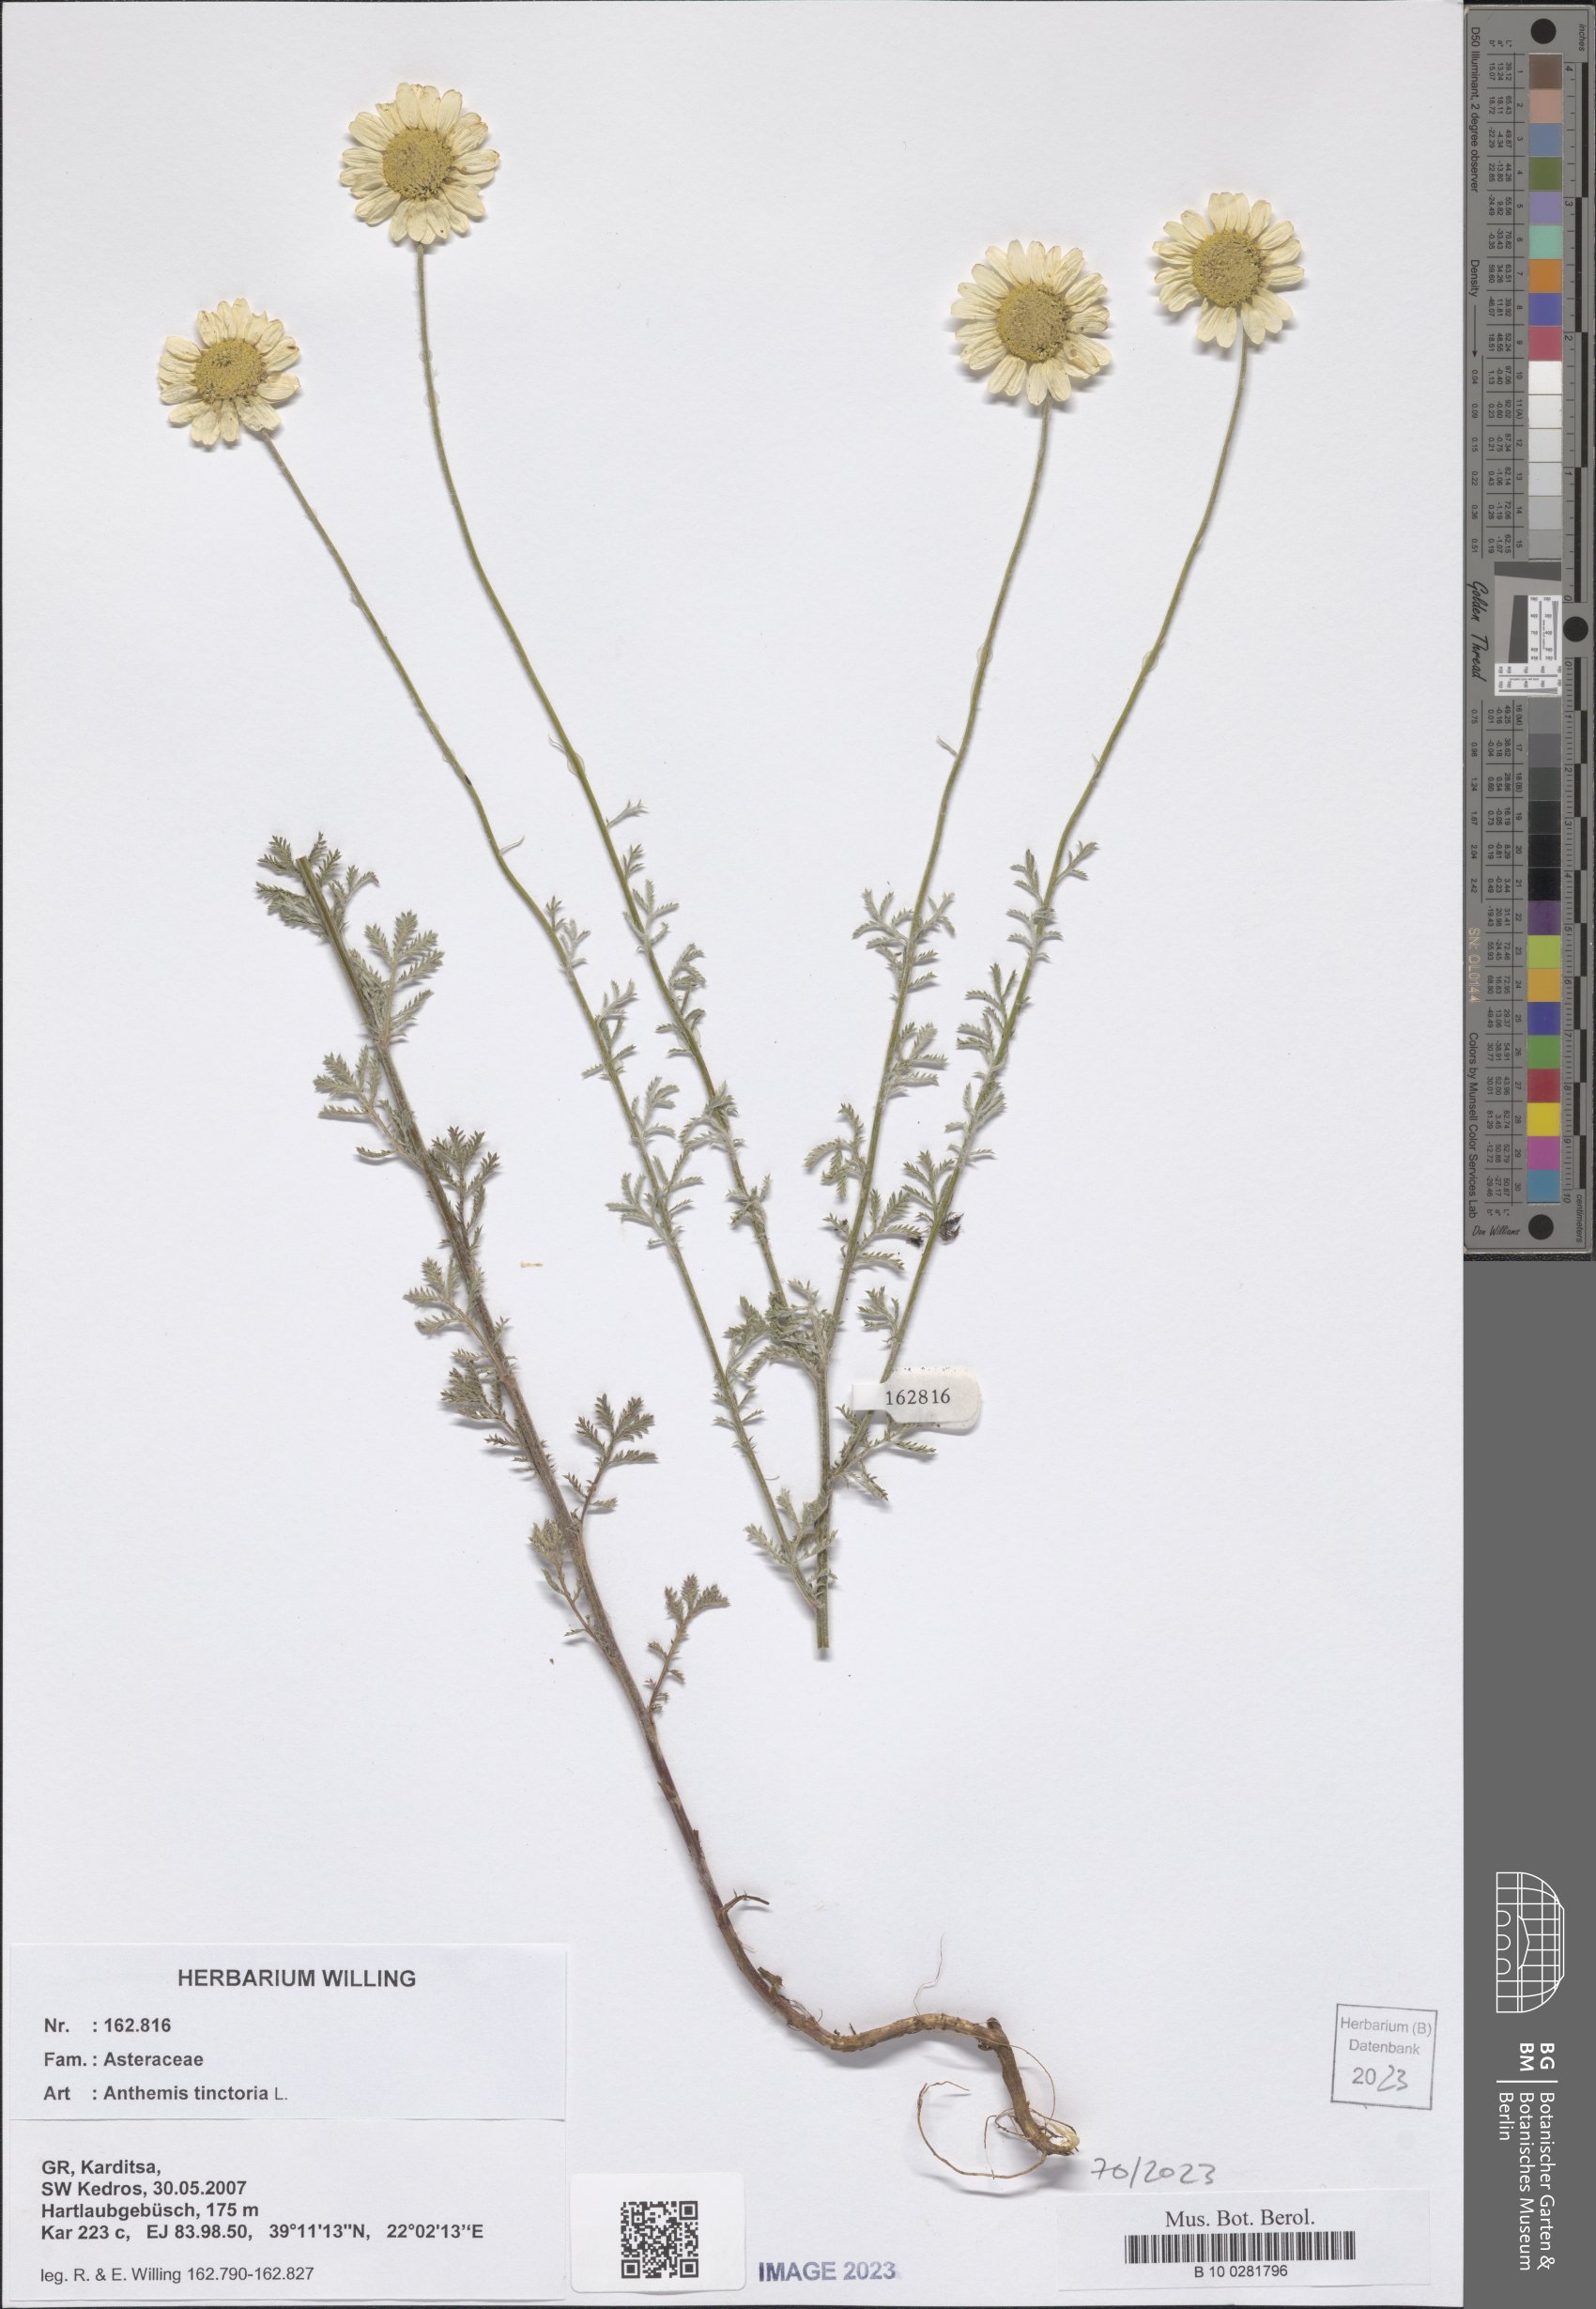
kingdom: Plantae
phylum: Tracheophyta
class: Magnoliopsida
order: Asterales
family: Asteraceae
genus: Cota
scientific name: Cota tinctoria
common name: Golden chamomile
